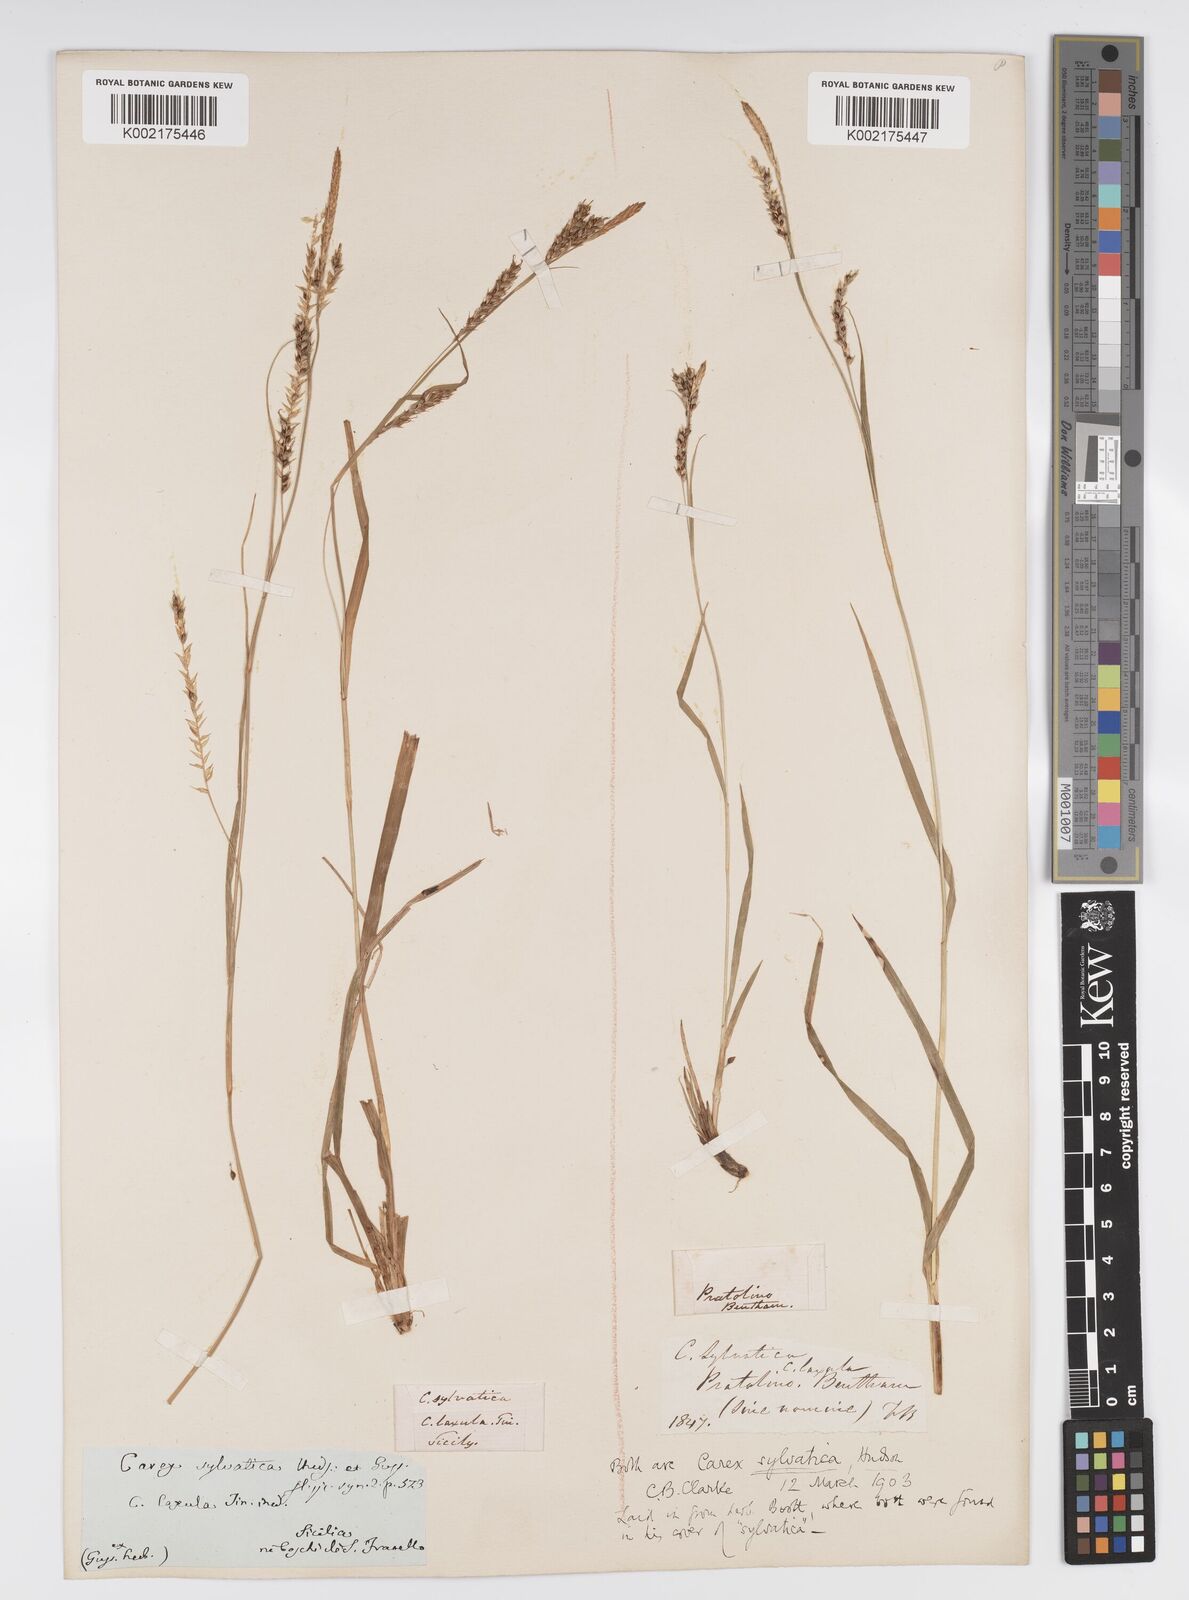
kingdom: Plantae
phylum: Tracheophyta
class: Liliopsida
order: Poales
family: Cyperaceae
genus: Carex
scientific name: Carex sylvatica
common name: Wood-sedge
